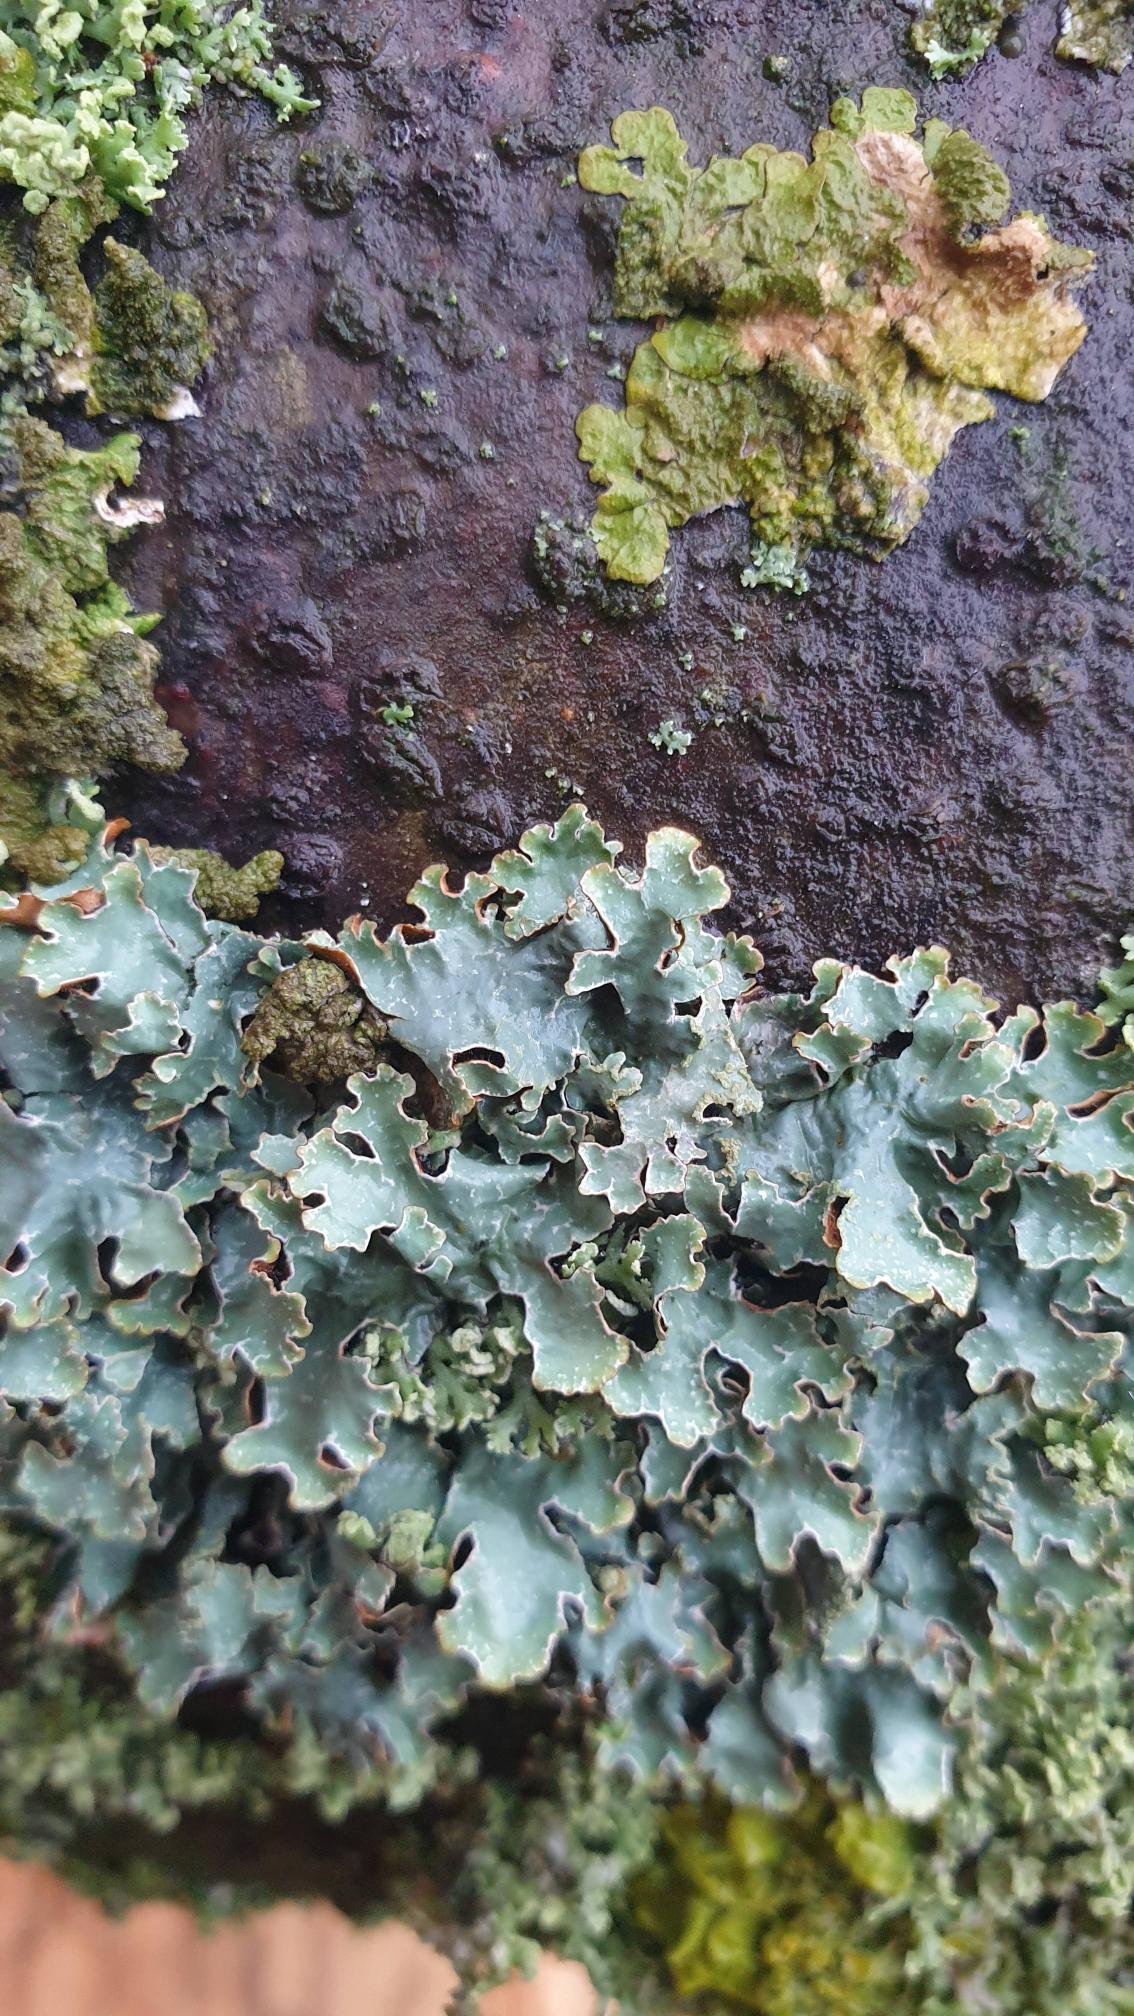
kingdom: Fungi
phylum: Ascomycota
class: Lecanoromycetes
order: Lecanorales
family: Parmeliaceae
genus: Parmelia
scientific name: Parmelia sulcata
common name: Rynket skållav
